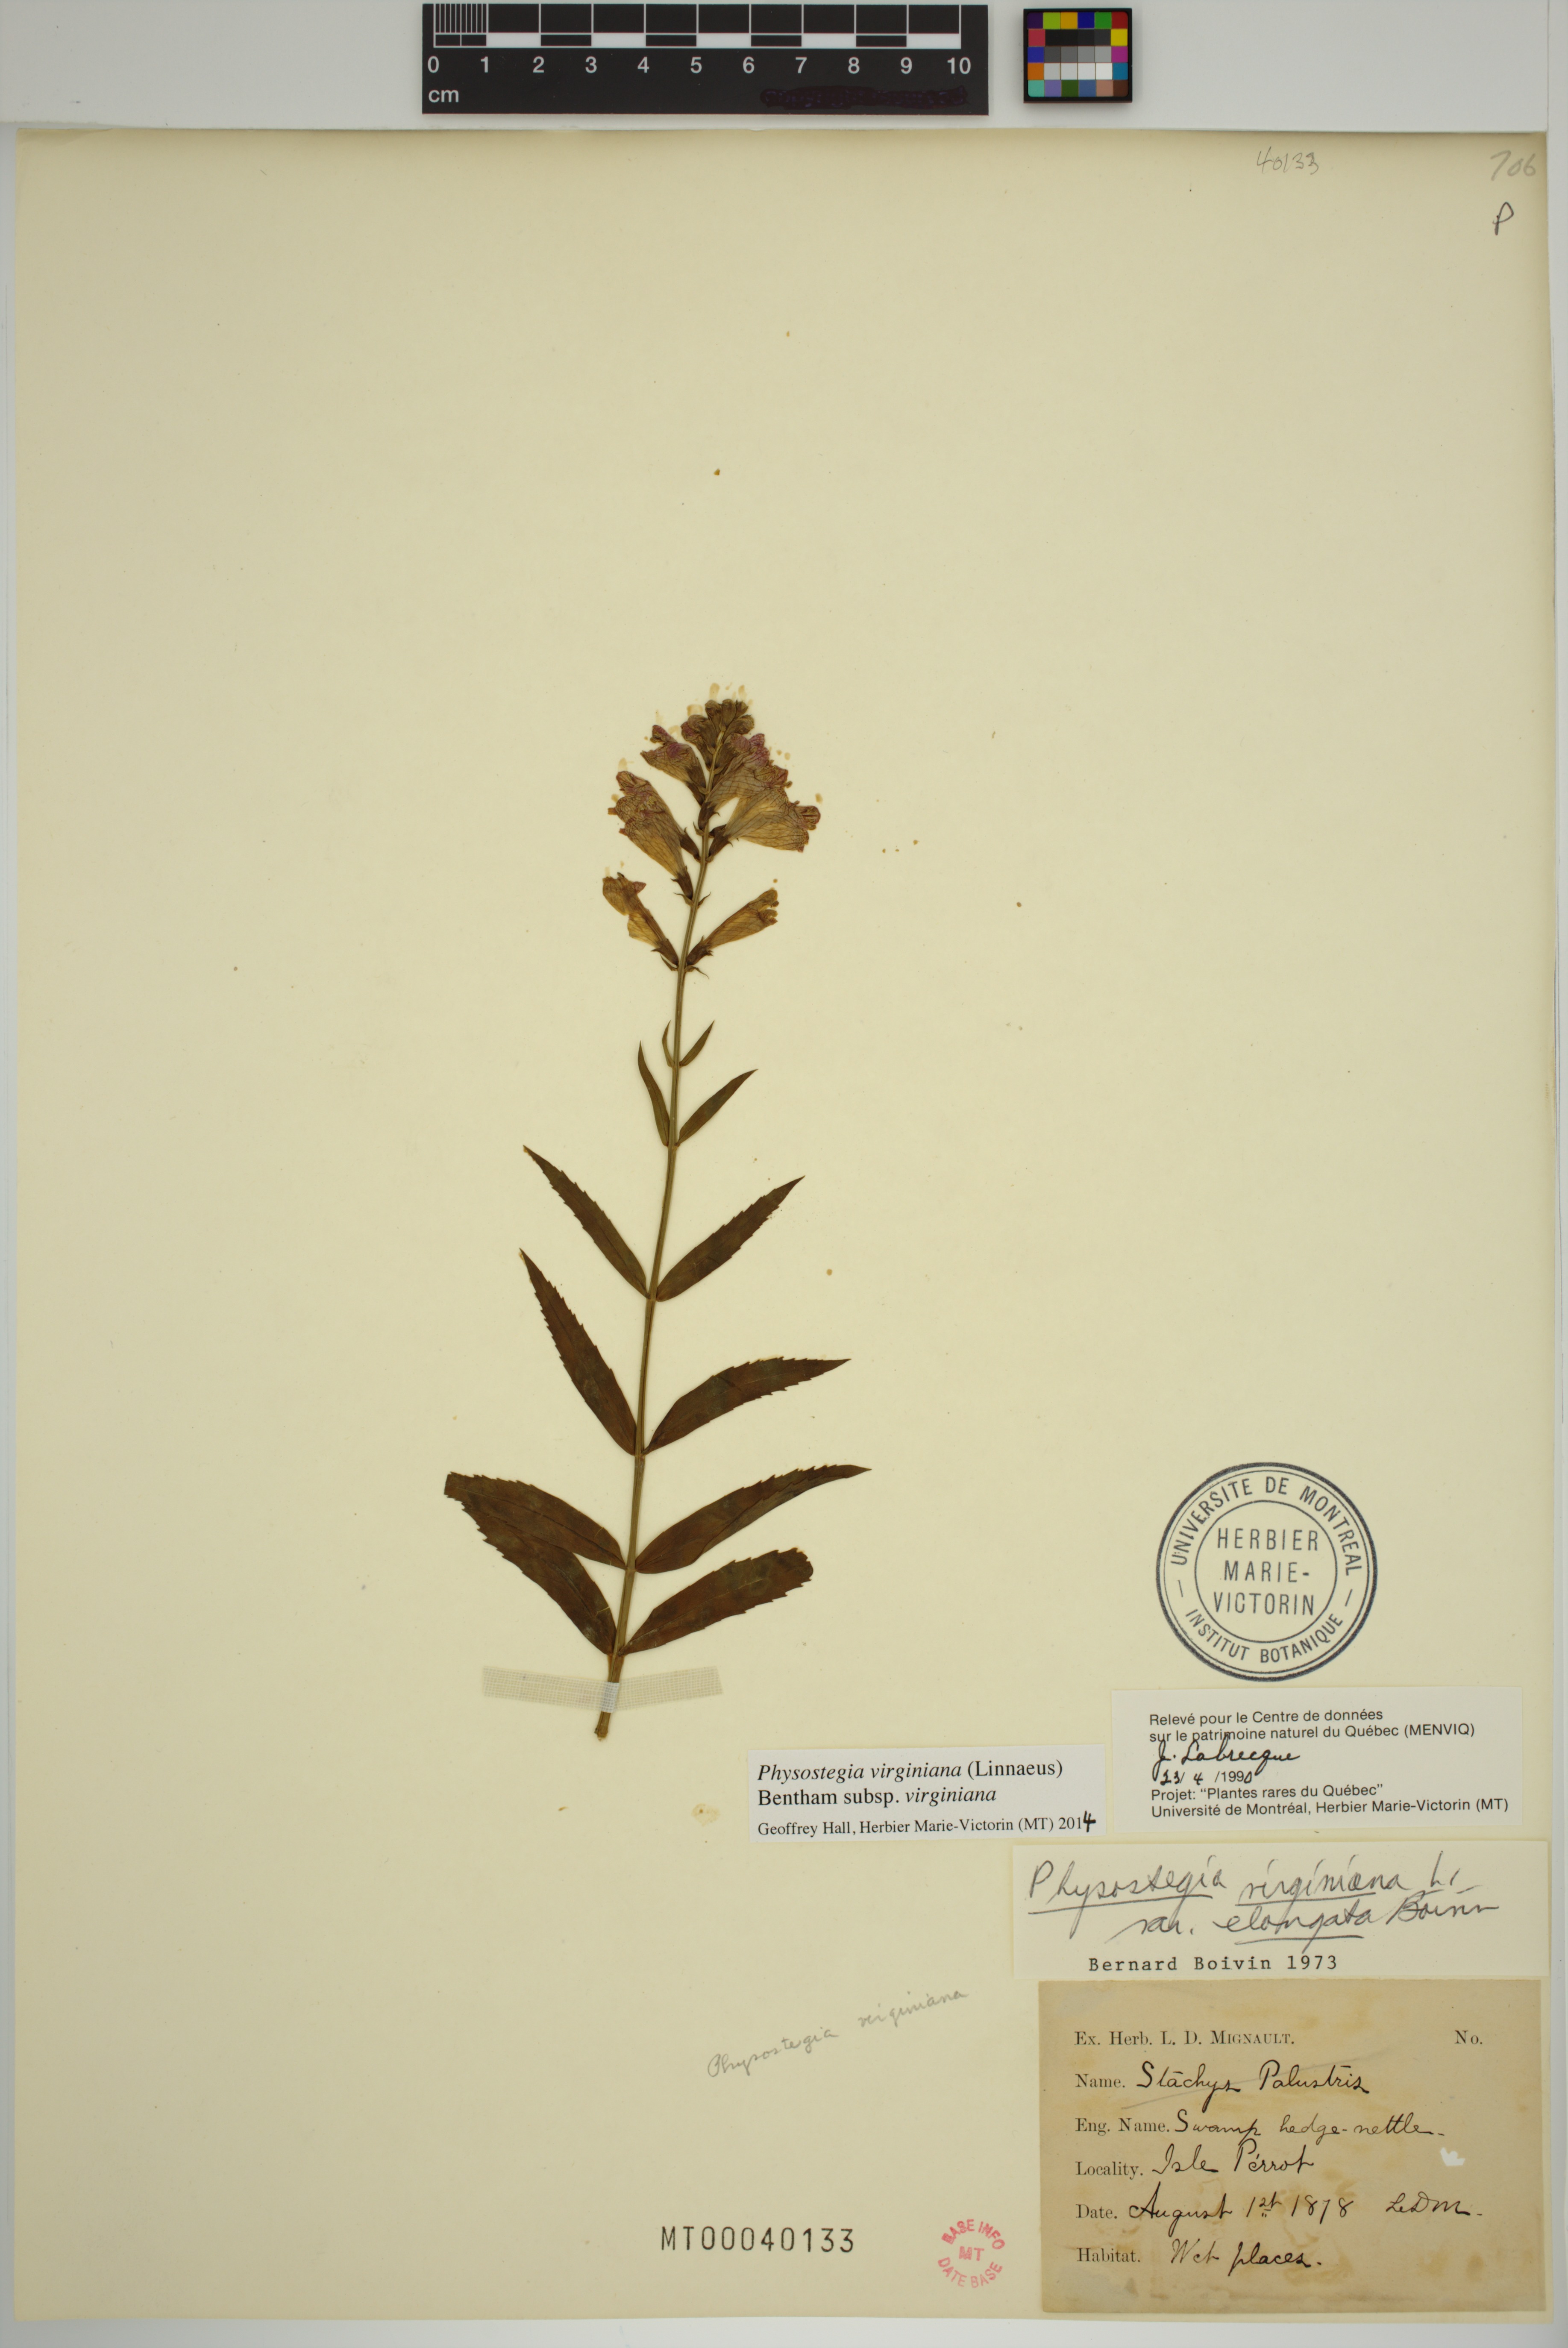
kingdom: Plantae
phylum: Tracheophyta
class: Magnoliopsida
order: Lamiales
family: Lamiaceae
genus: Physostegia
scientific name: Physostegia virginiana
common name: Obedient-plant
